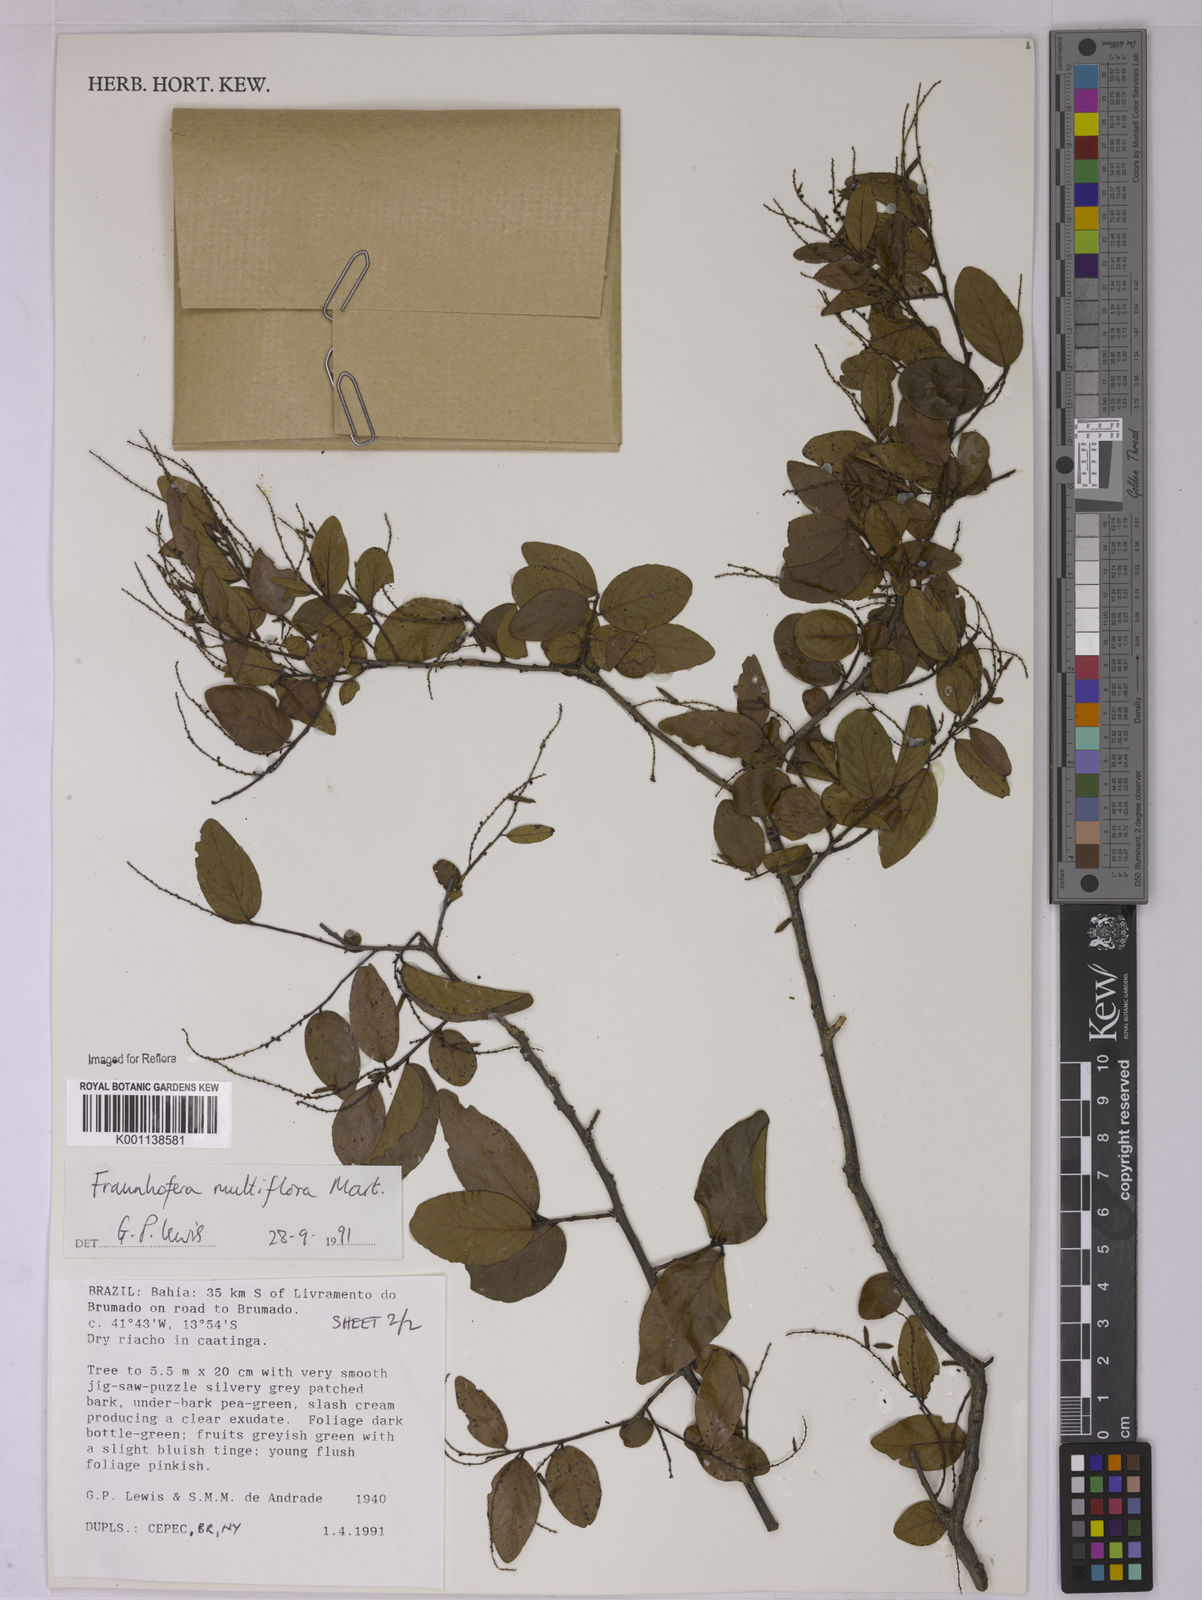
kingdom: Plantae
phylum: Tracheophyta
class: Magnoliopsida
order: Celastrales
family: Celastraceae
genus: Fraunhofera
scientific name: Fraunhofera multiflora
